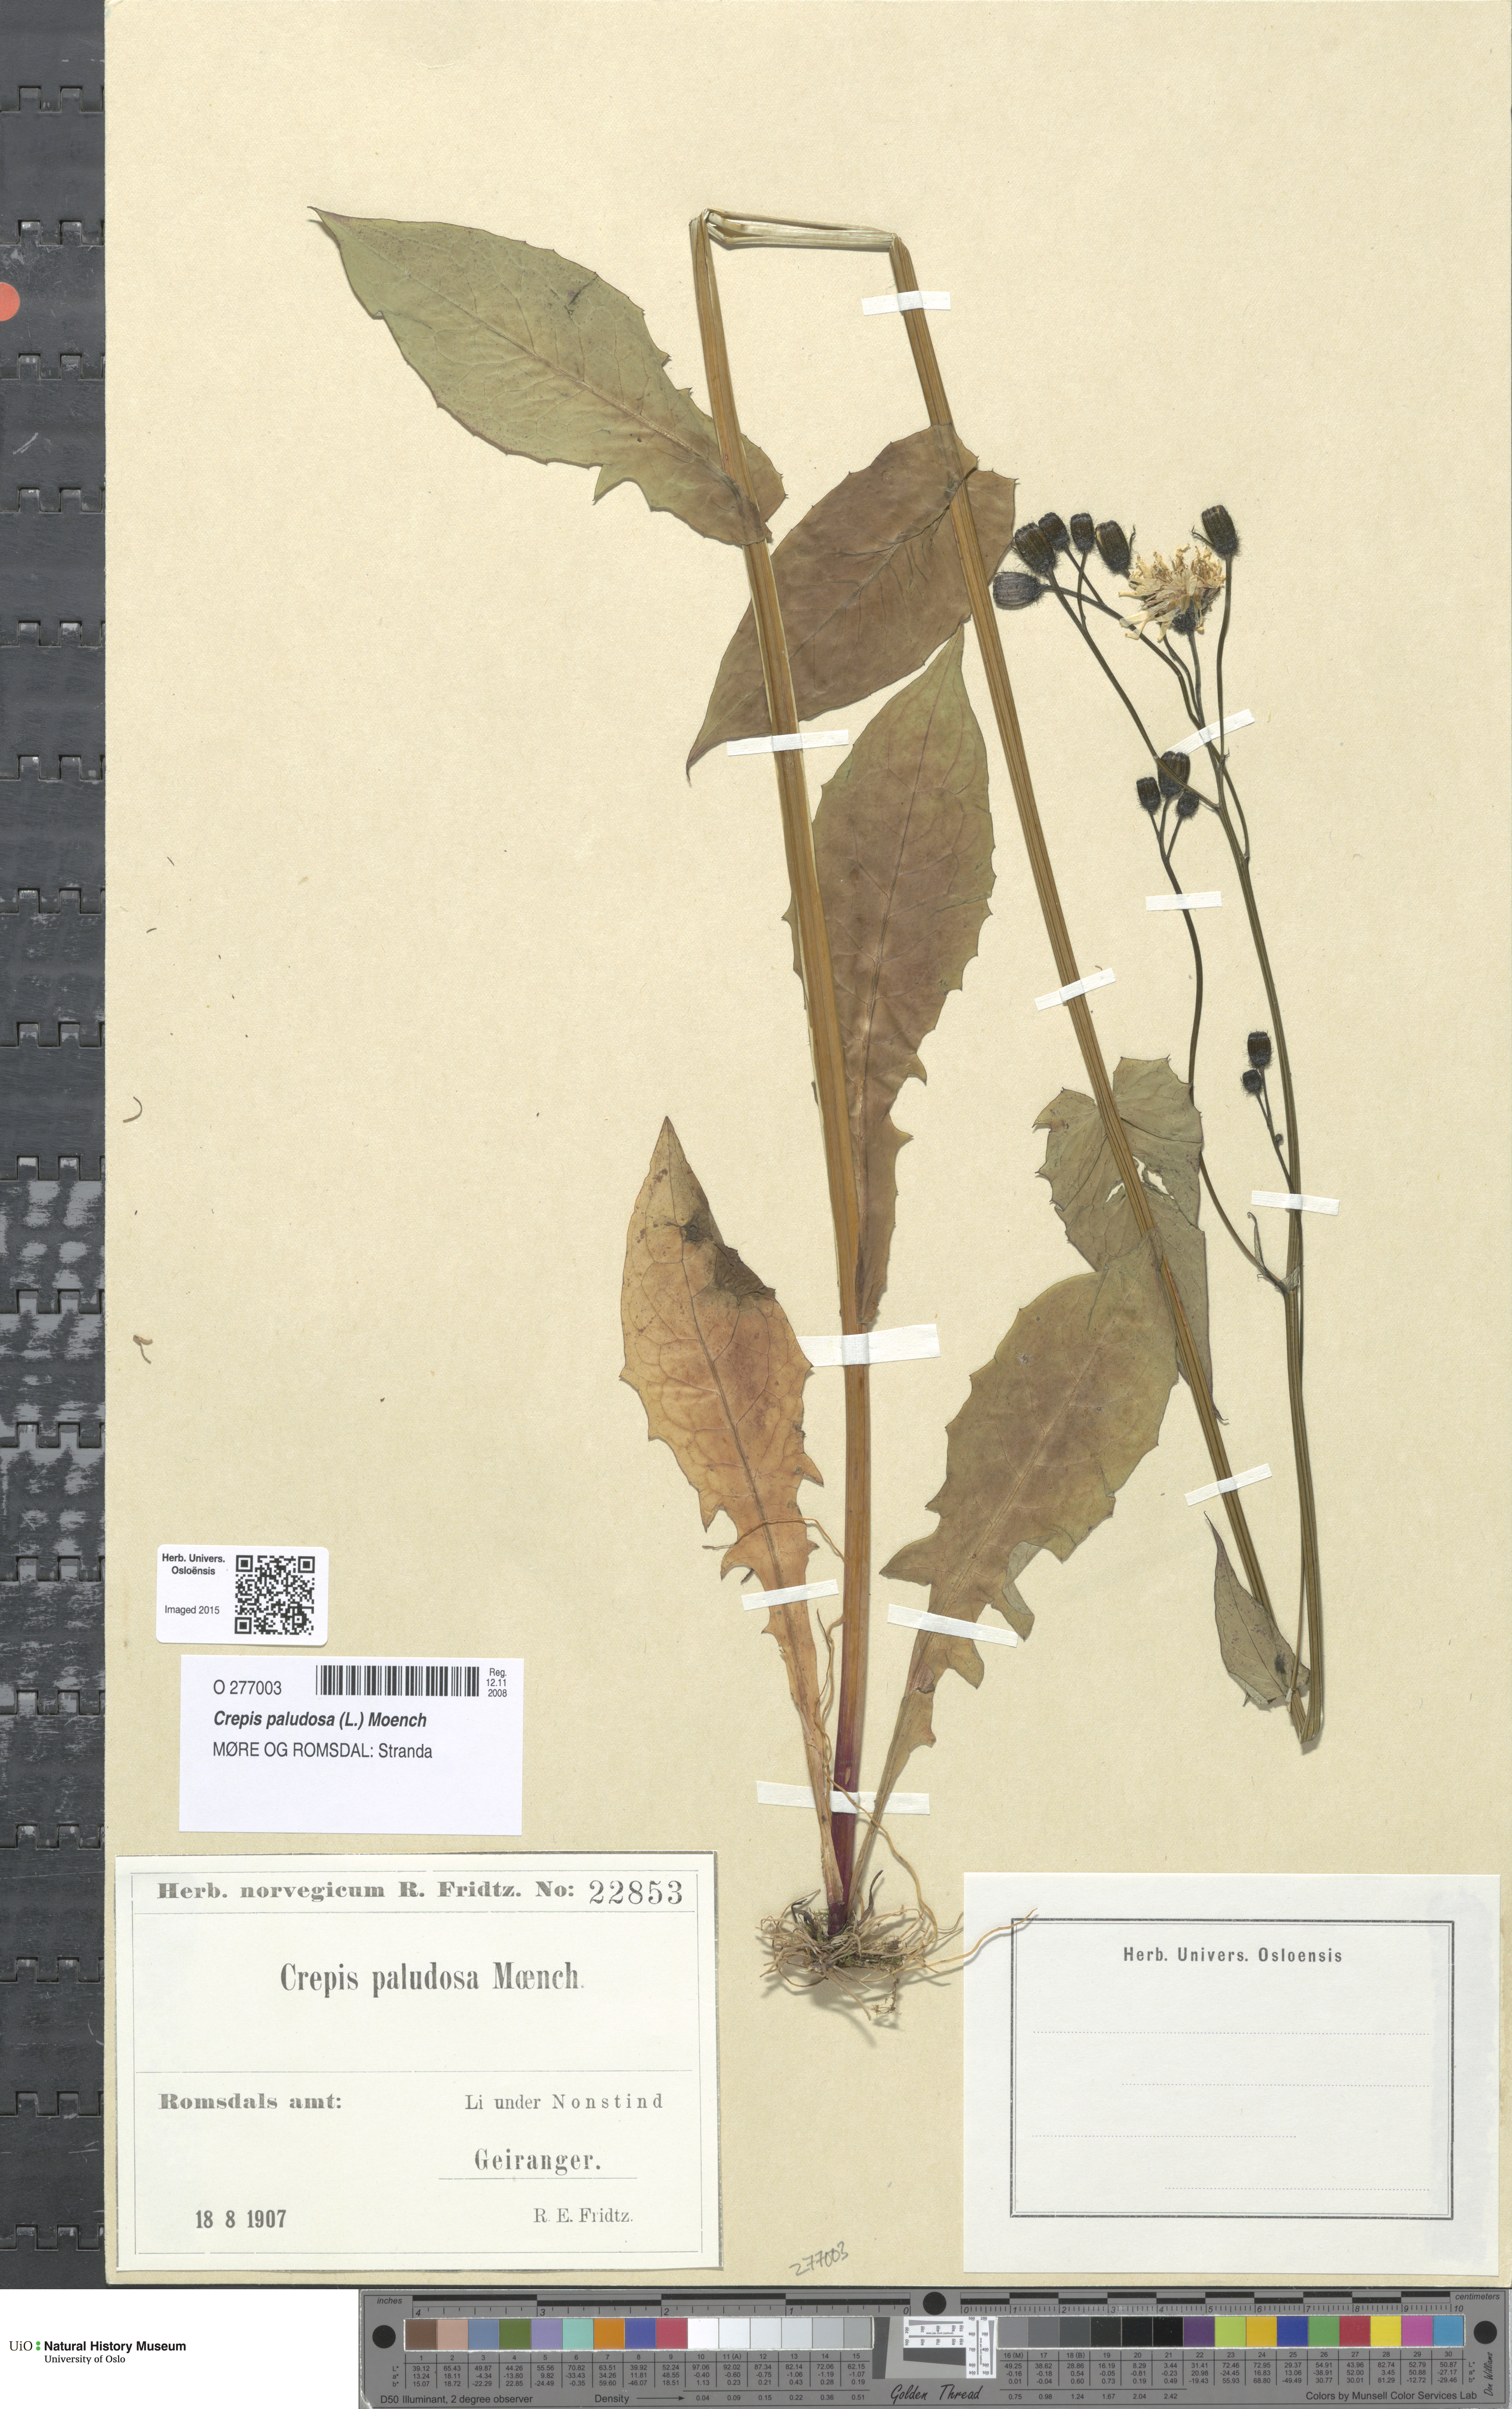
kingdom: Plantae
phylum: Tracheophyta
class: Magnoliopsida
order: Asterales
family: Asteraceae
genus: Crepis
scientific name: Crepis paludosa
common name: Marsh hawk's-beard
